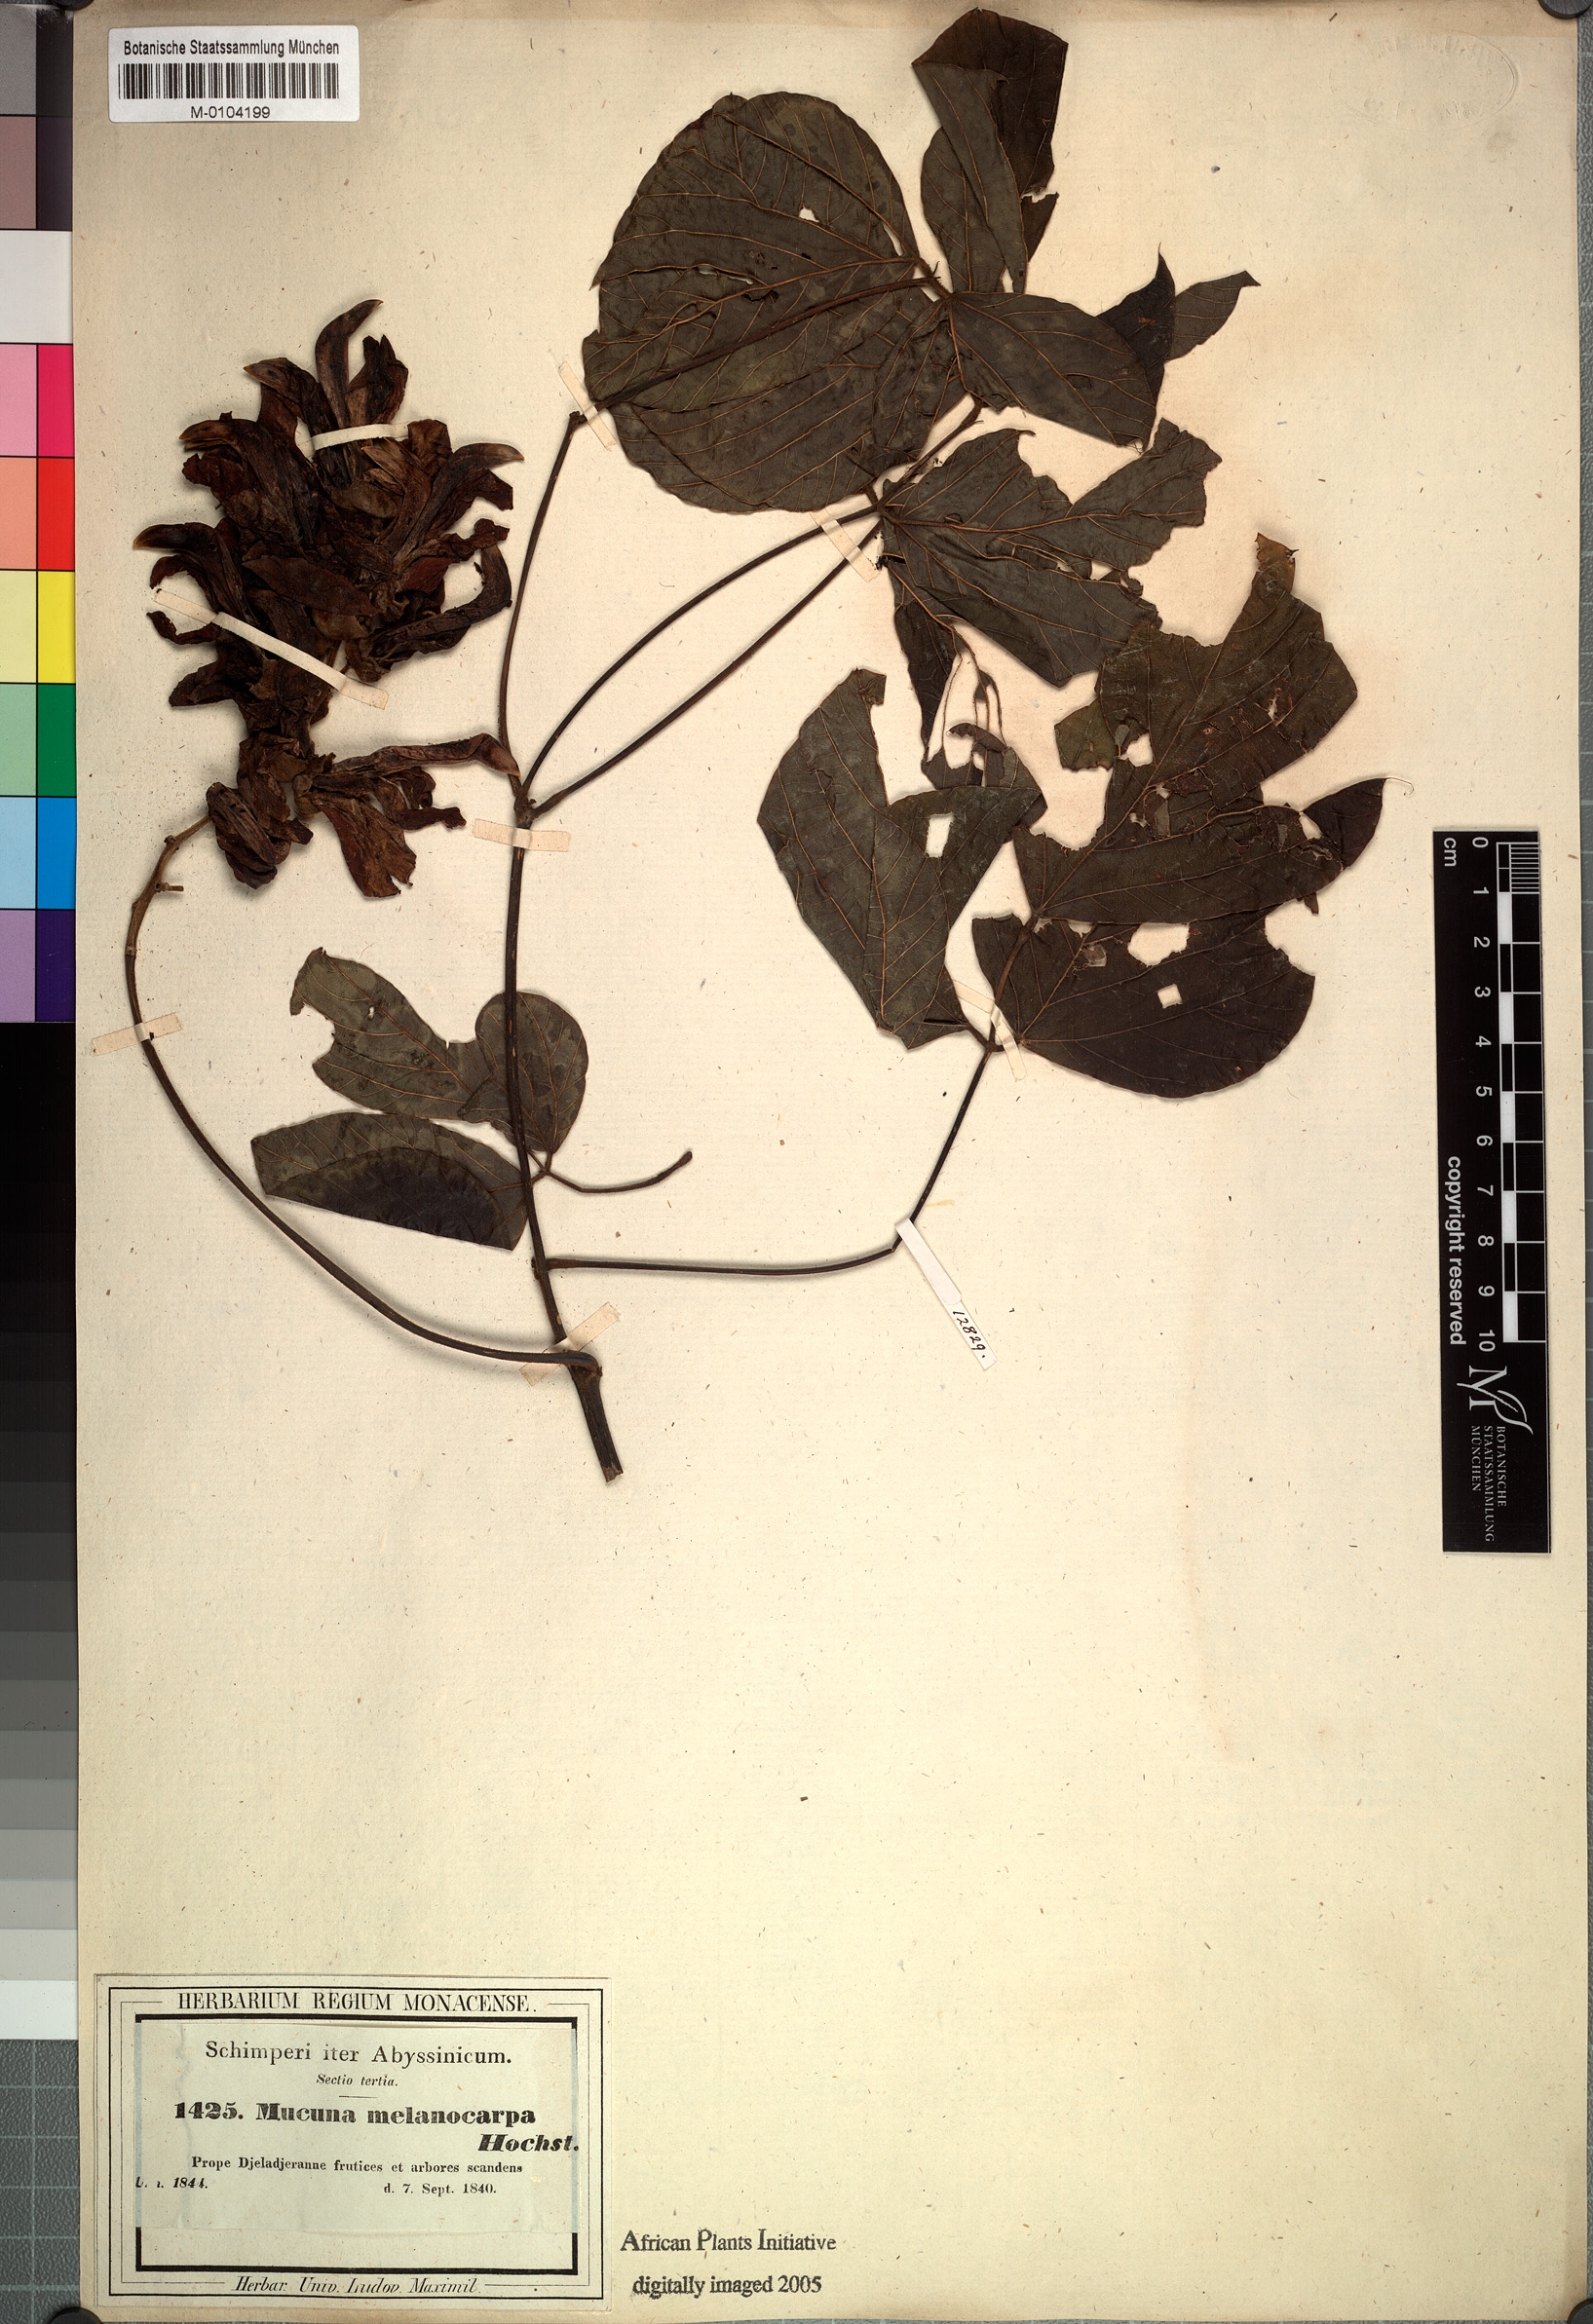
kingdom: Plantae
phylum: Tracheophyta
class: Magnoliopsida
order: Fabales
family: Fabaceae
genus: Mucuna
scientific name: Mucuna melanocarpa
